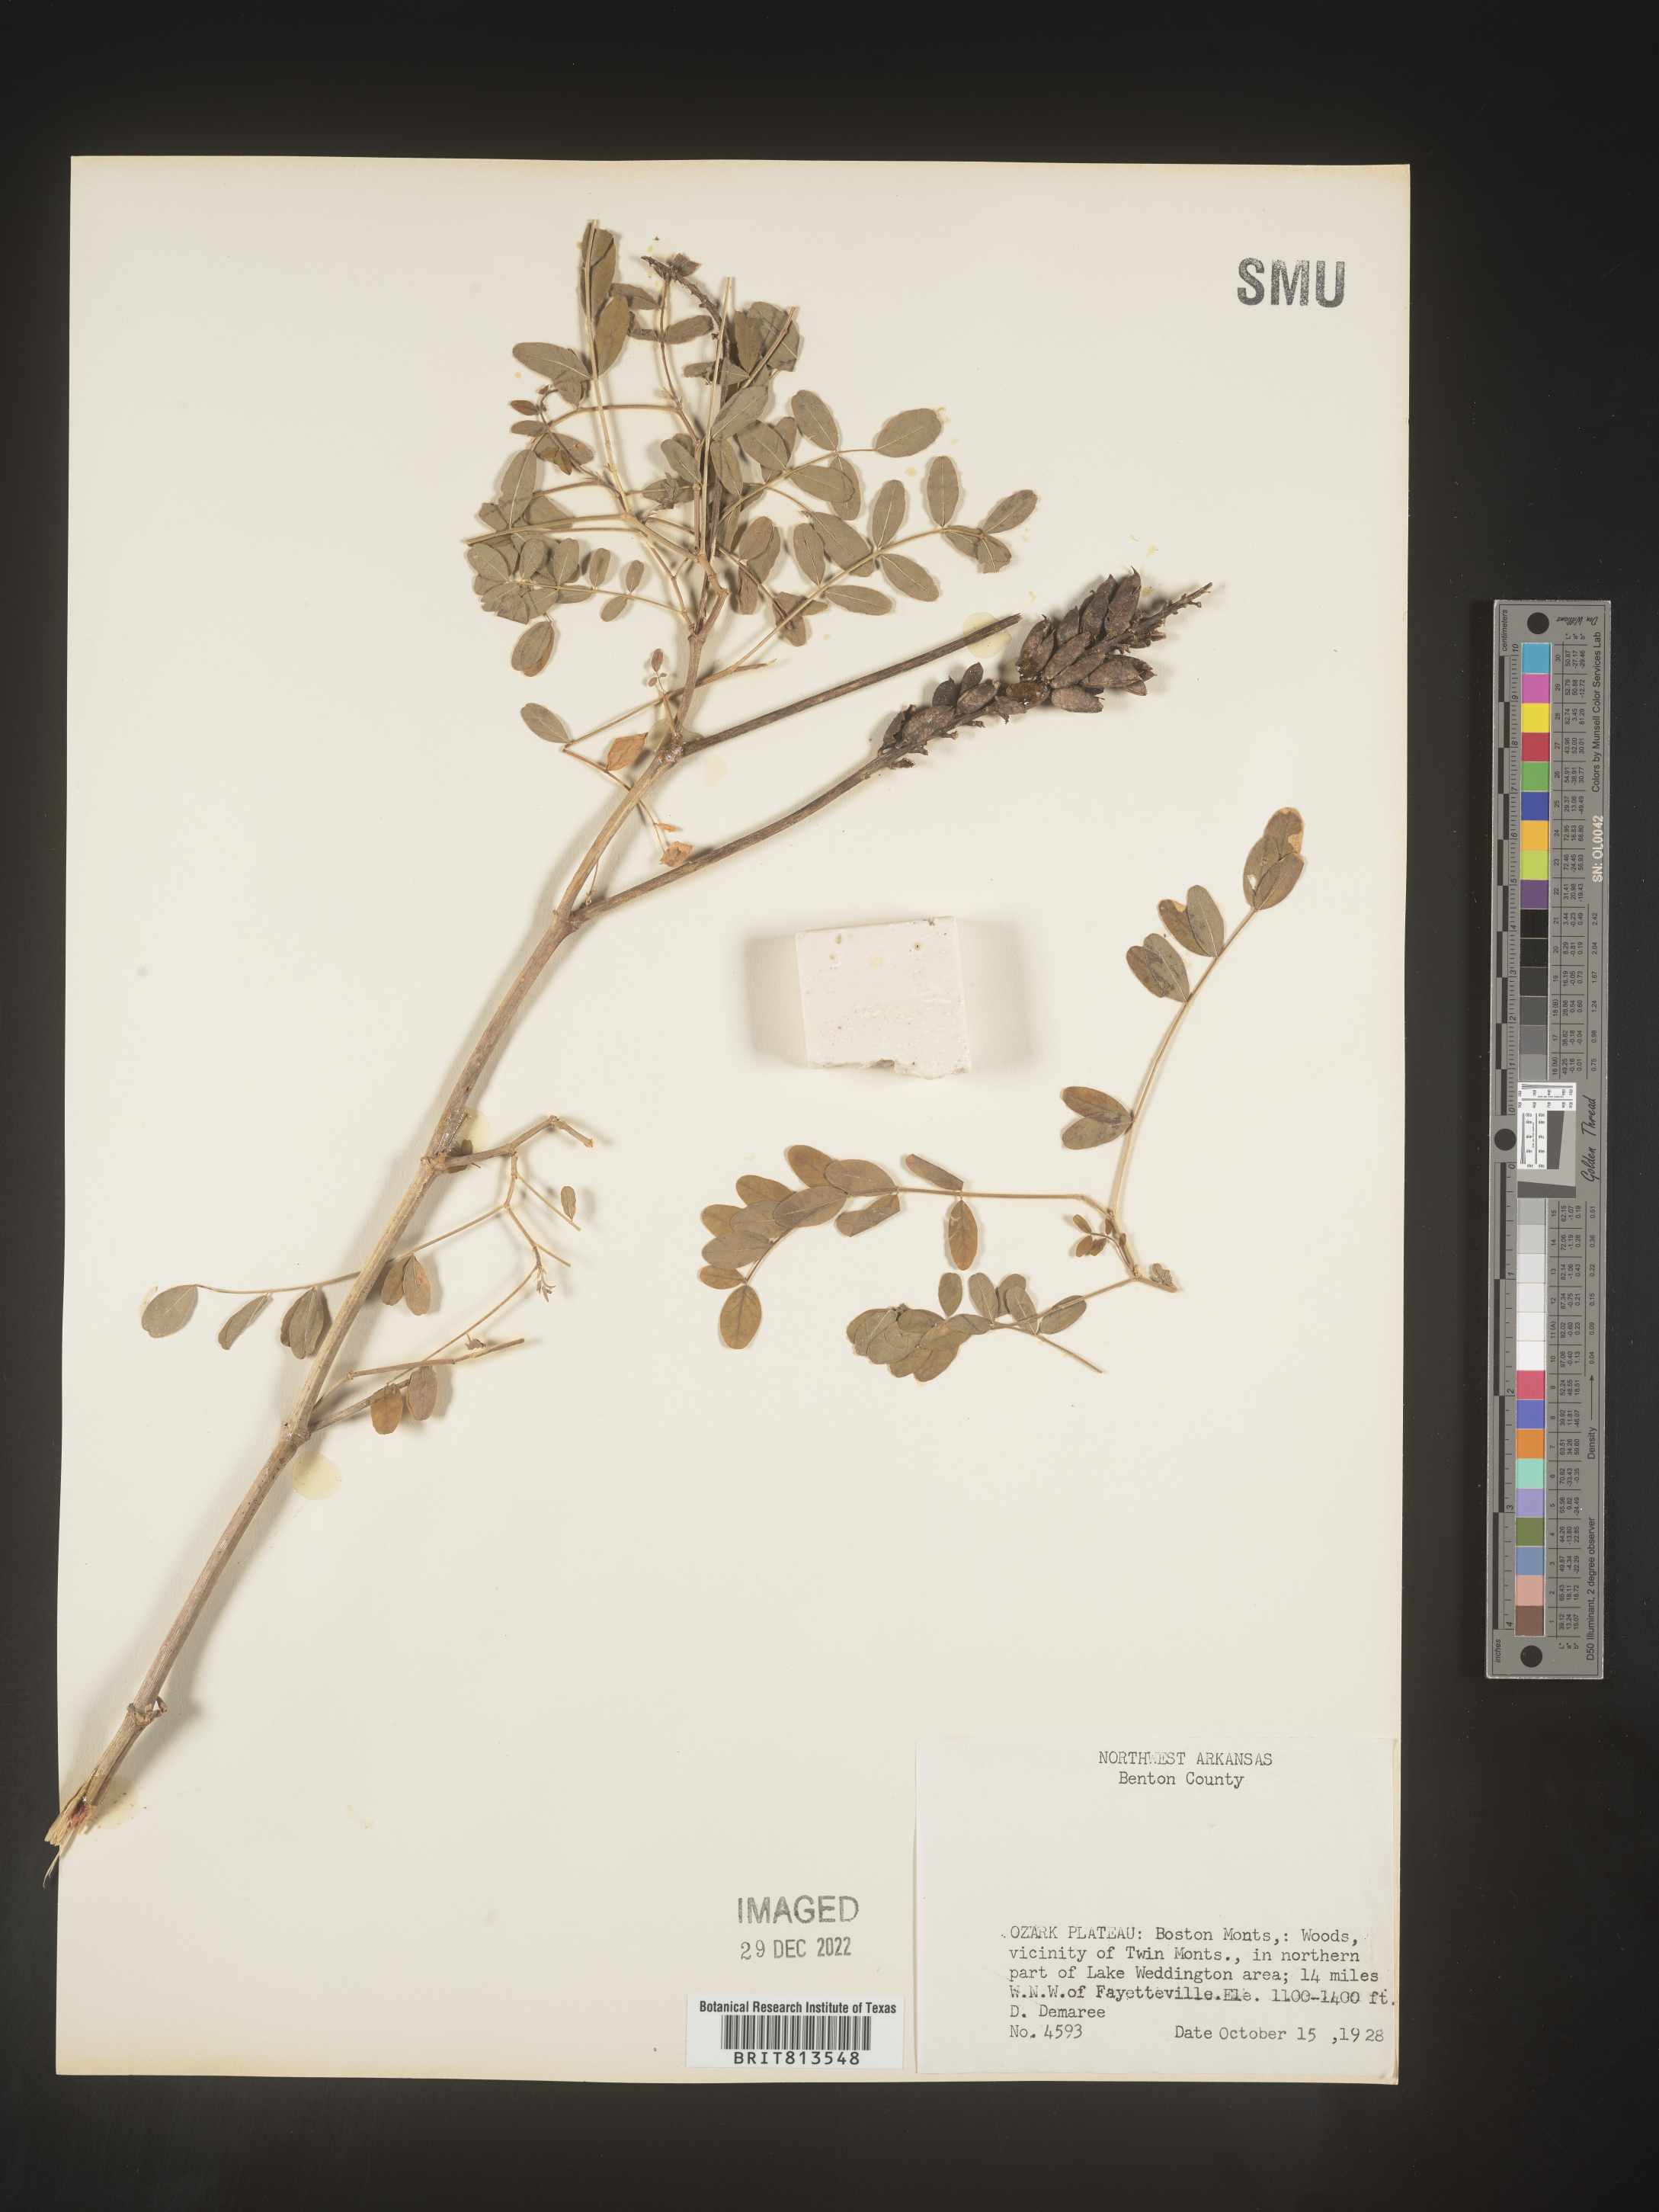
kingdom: Plantae
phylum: Tracheophyta
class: Magnoliopsida
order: Fabales
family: Fabaceae
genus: Astragalus
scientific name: Astragalus canadensis
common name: Canada milk-vetch
